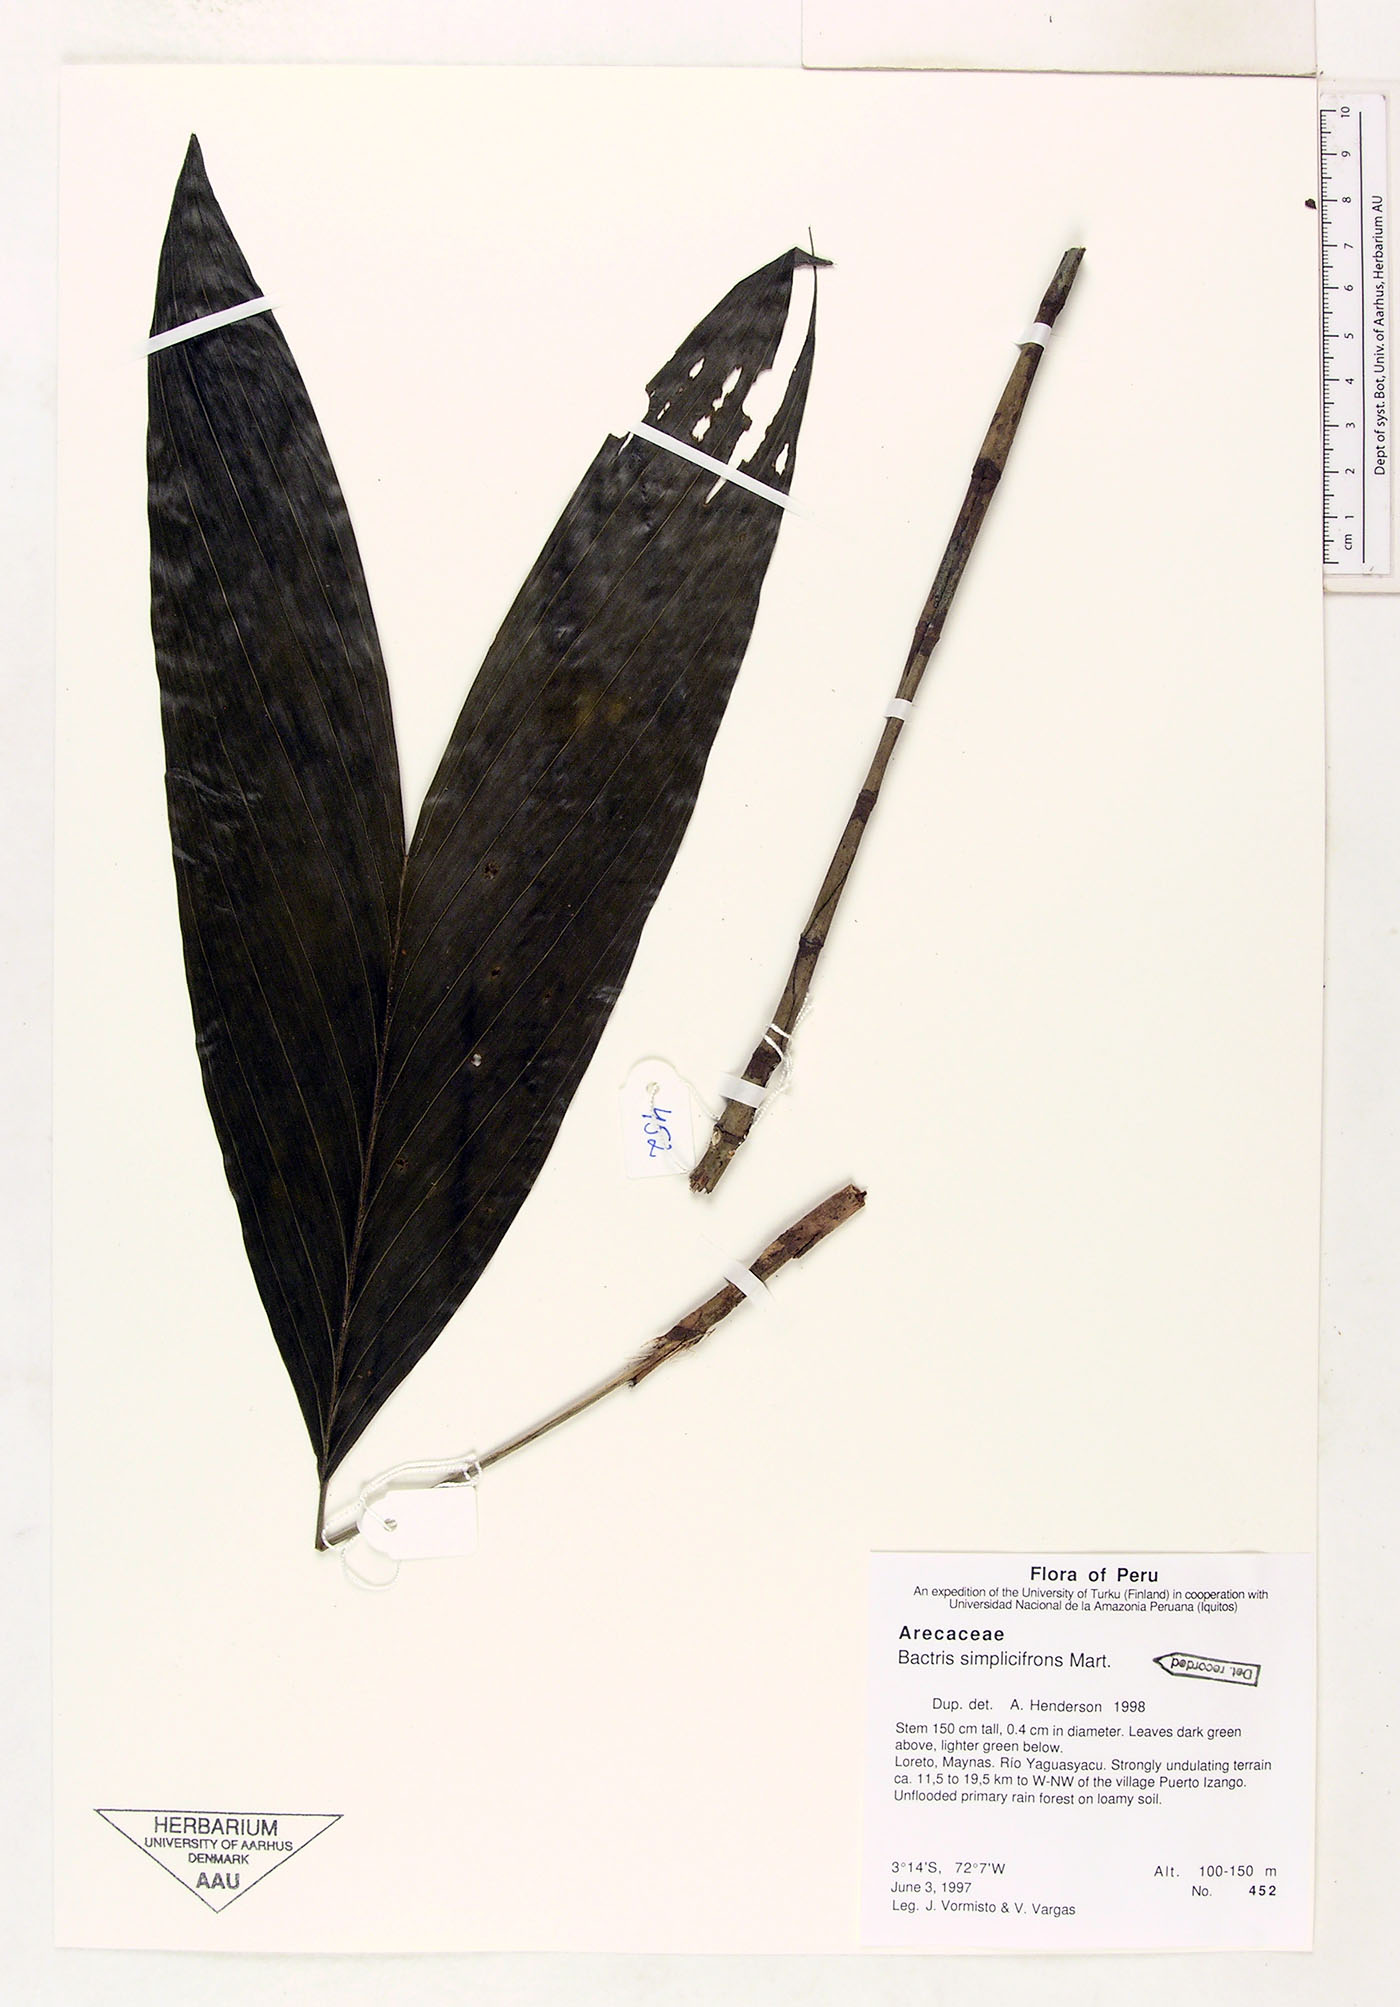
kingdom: Plantae
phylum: Tracheophyta
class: Liliopsida
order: Arecales
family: Arecaceae
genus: Bactris
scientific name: Bactris simplicifrons
